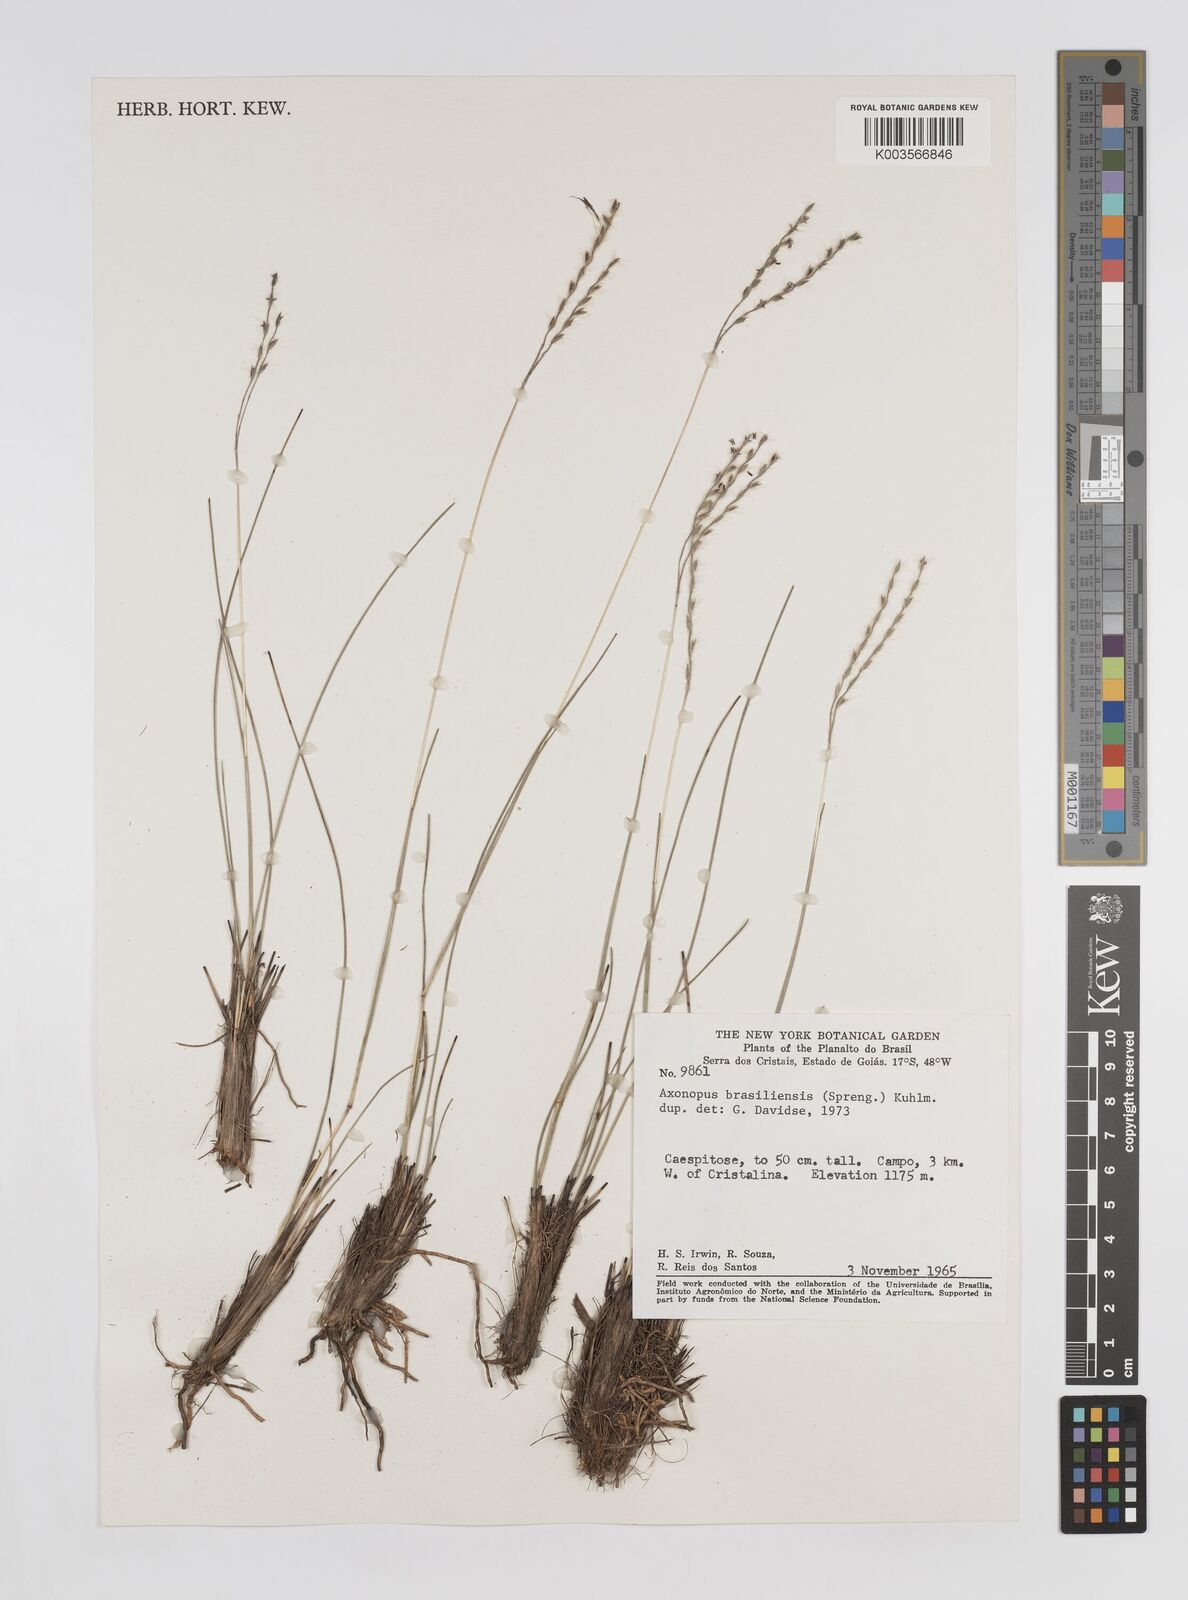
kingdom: Plantae
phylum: Tracheophyta
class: Liliopsida
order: Poales
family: Poaceae
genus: Axonopus
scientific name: Axonopus brasiliensis
